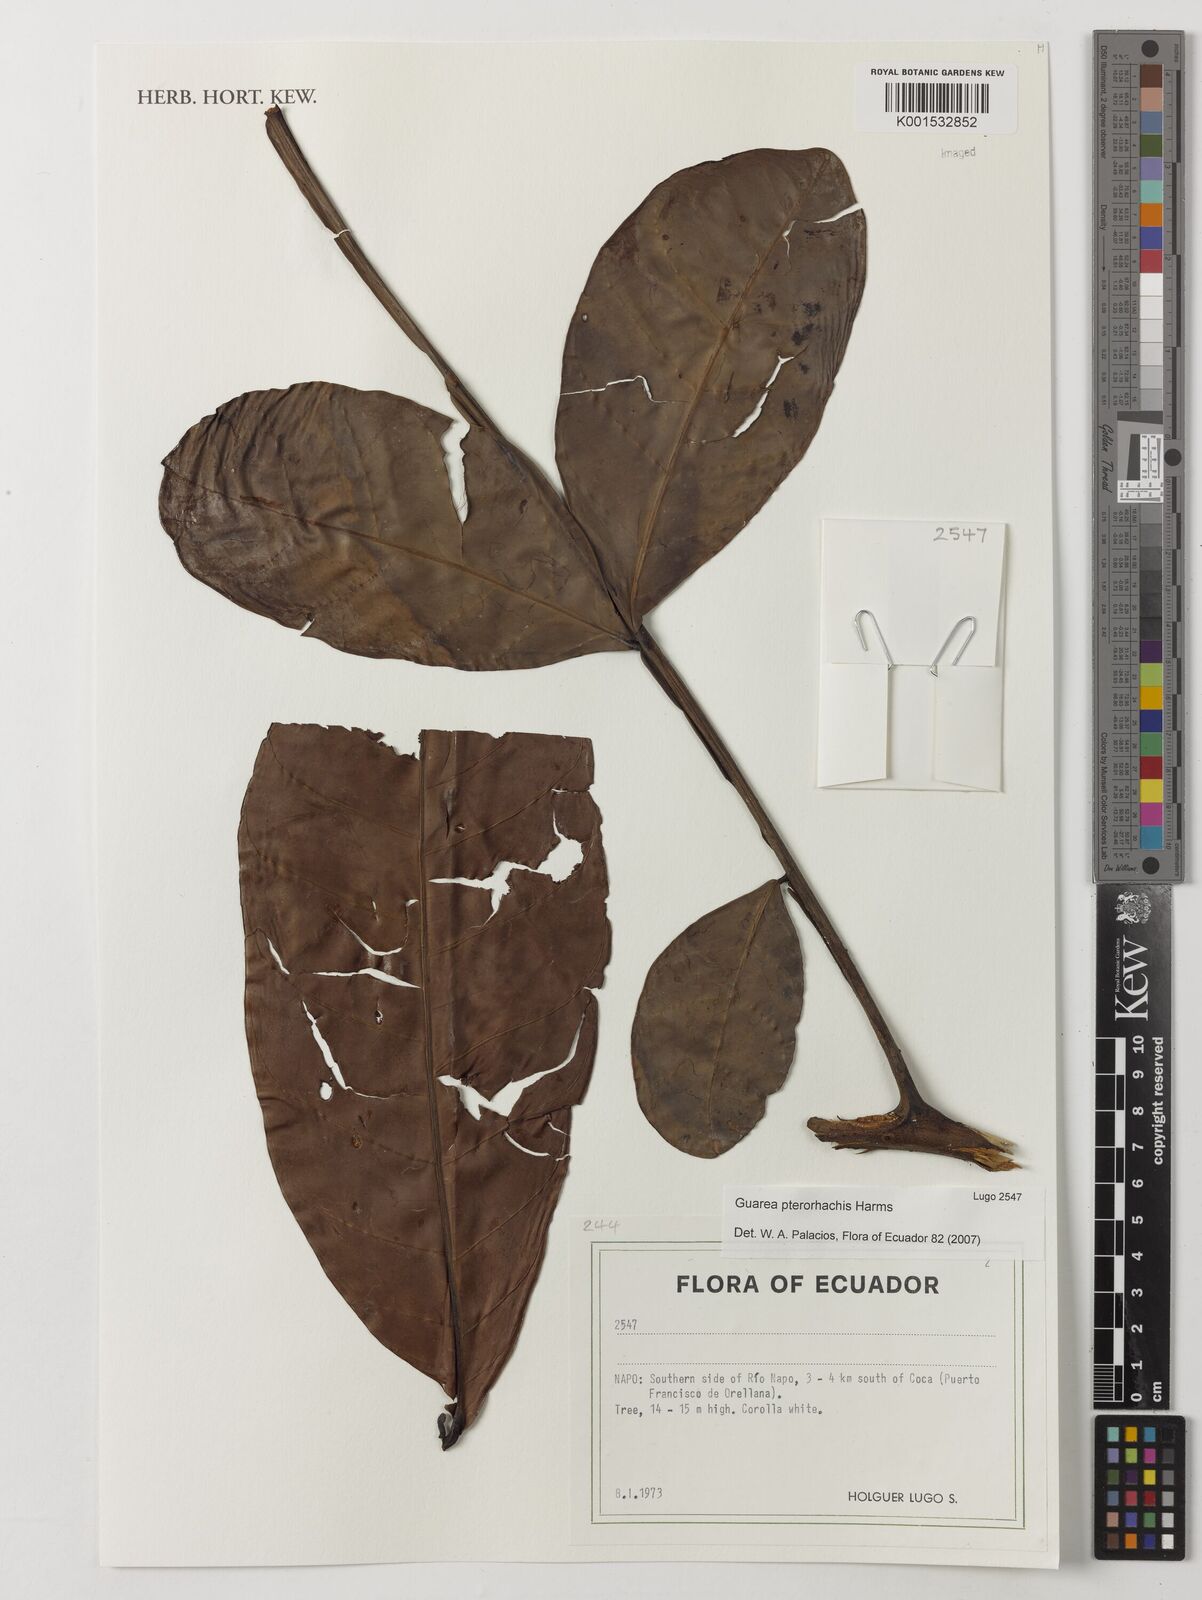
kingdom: Plantae
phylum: Tracheophyta
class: Magnoliopsida
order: Sapindales
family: Meliaceae
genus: Guarea
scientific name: Guarea pterorhachis
